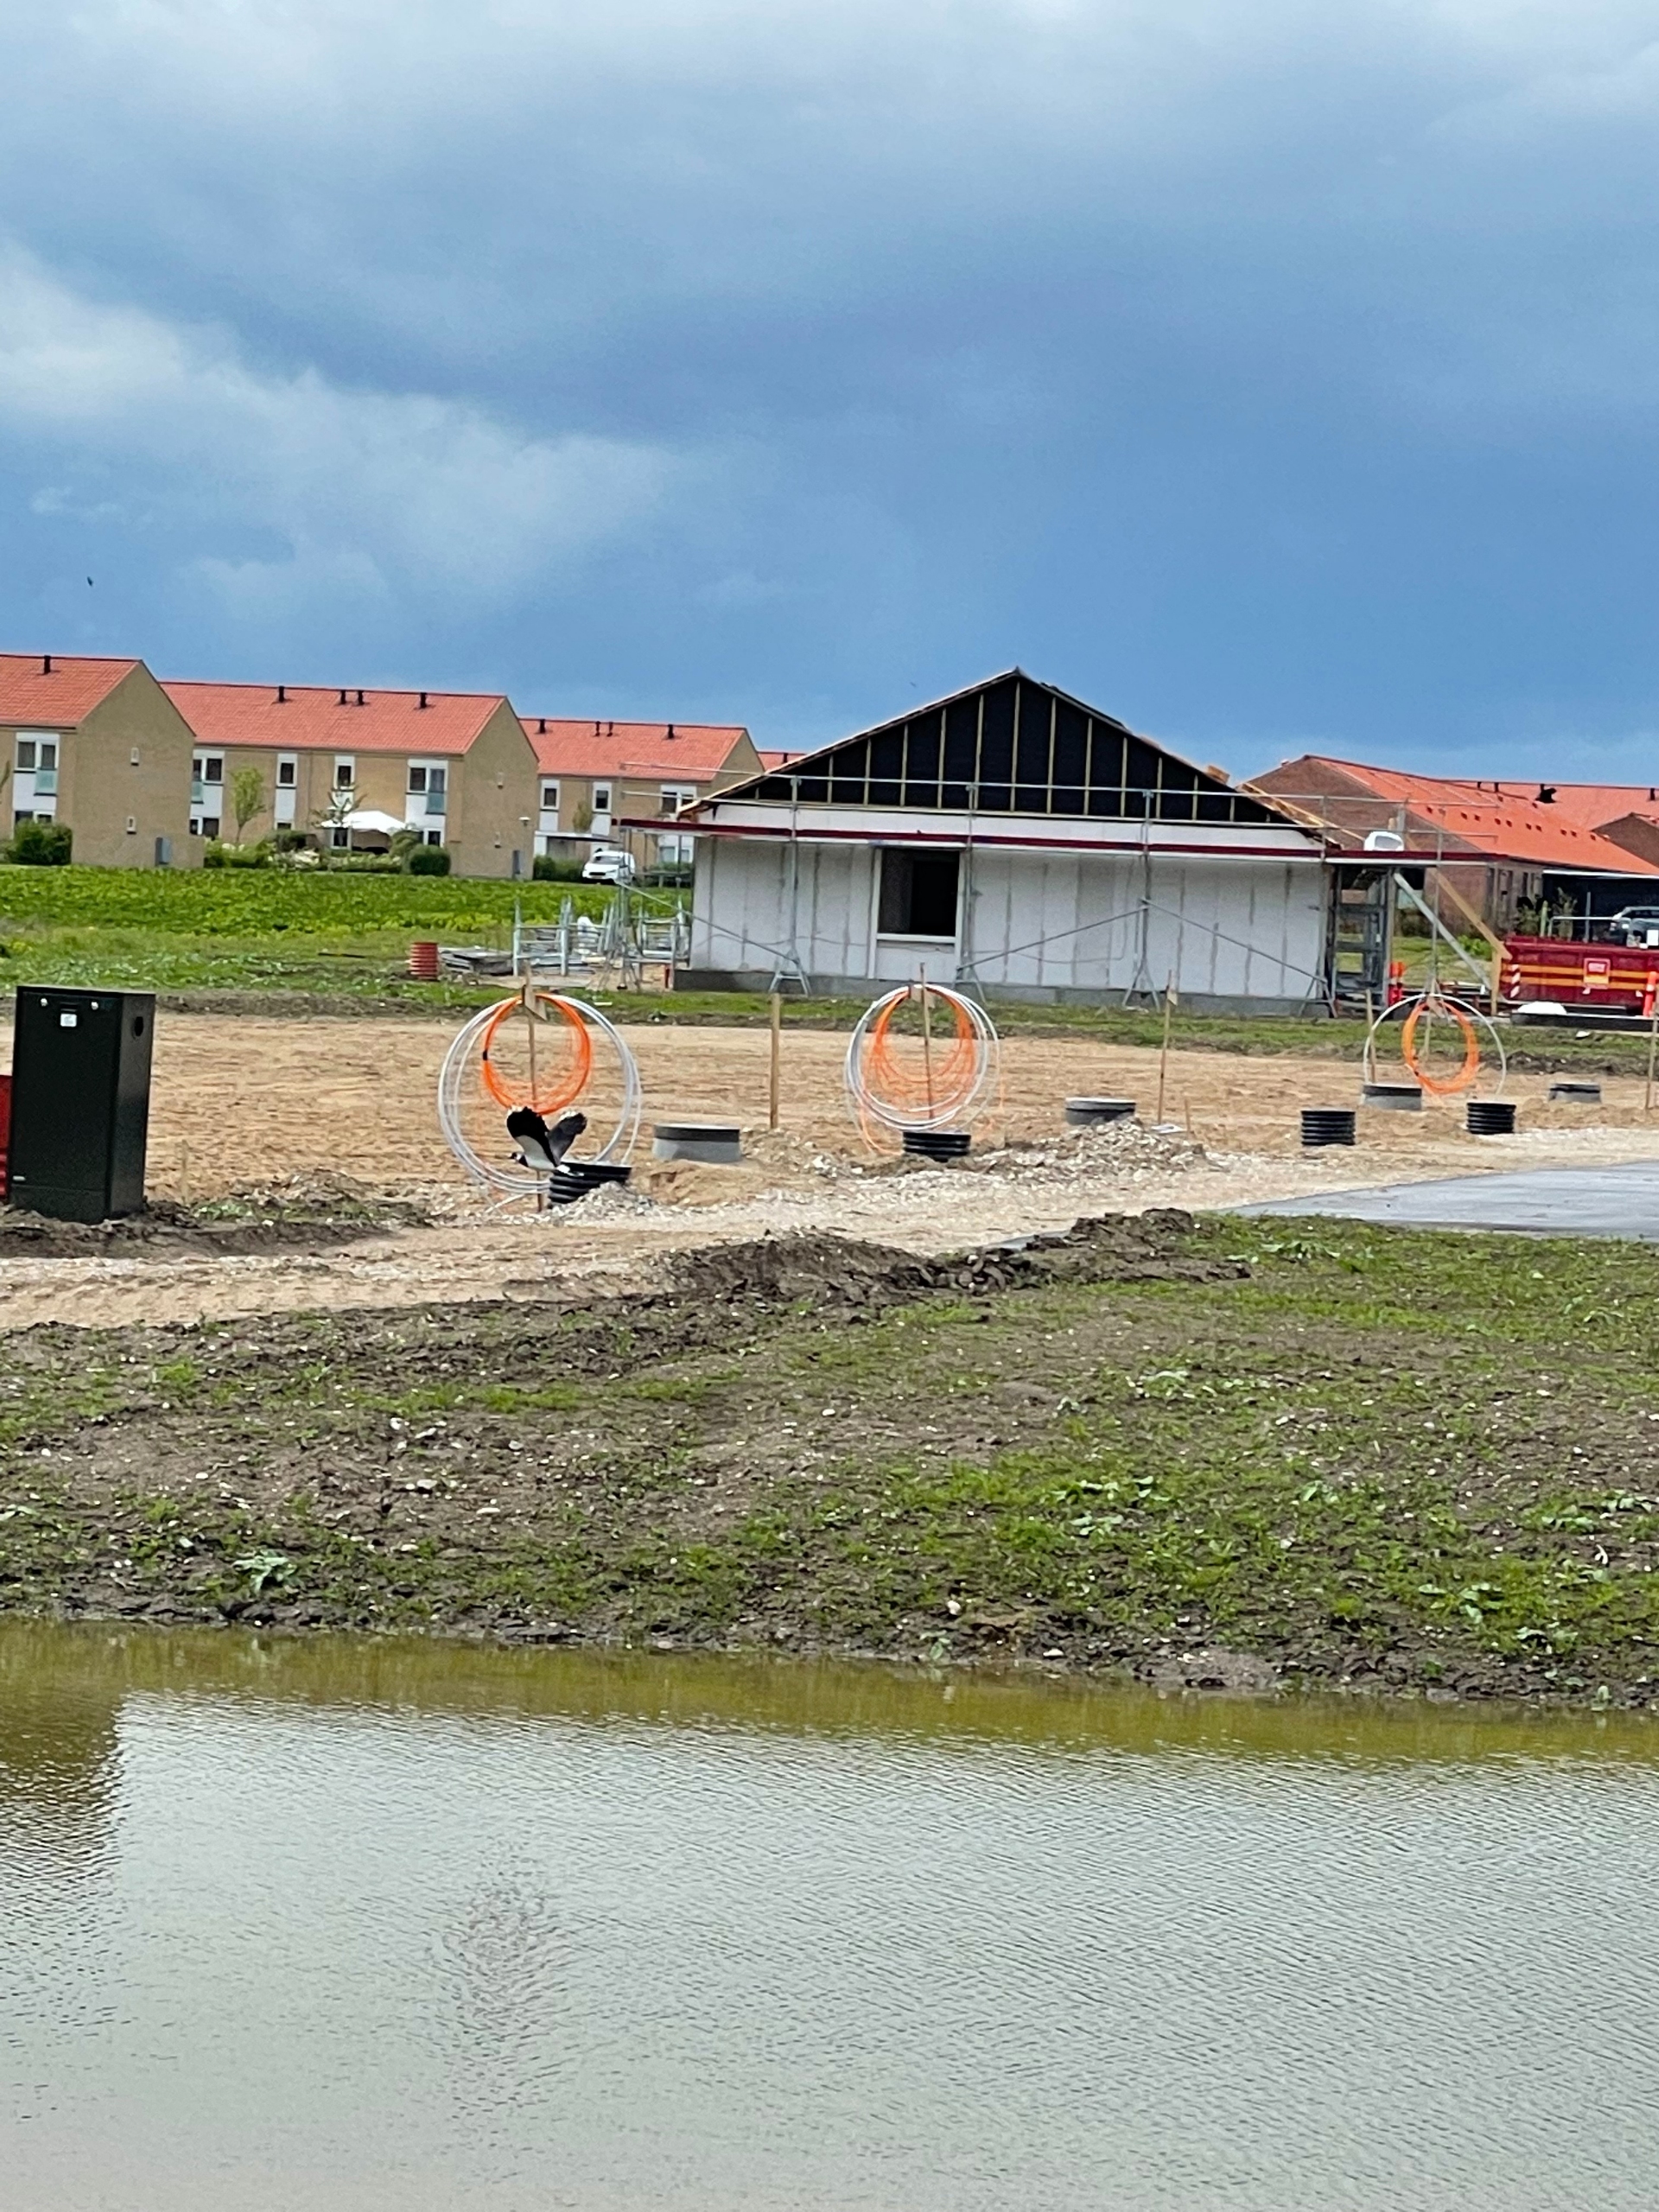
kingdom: Animalia
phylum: Chordata
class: Aves
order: Charadriiformes
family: Charadriidae
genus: Vanellus
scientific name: Vanellus vanellus
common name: Vibe
